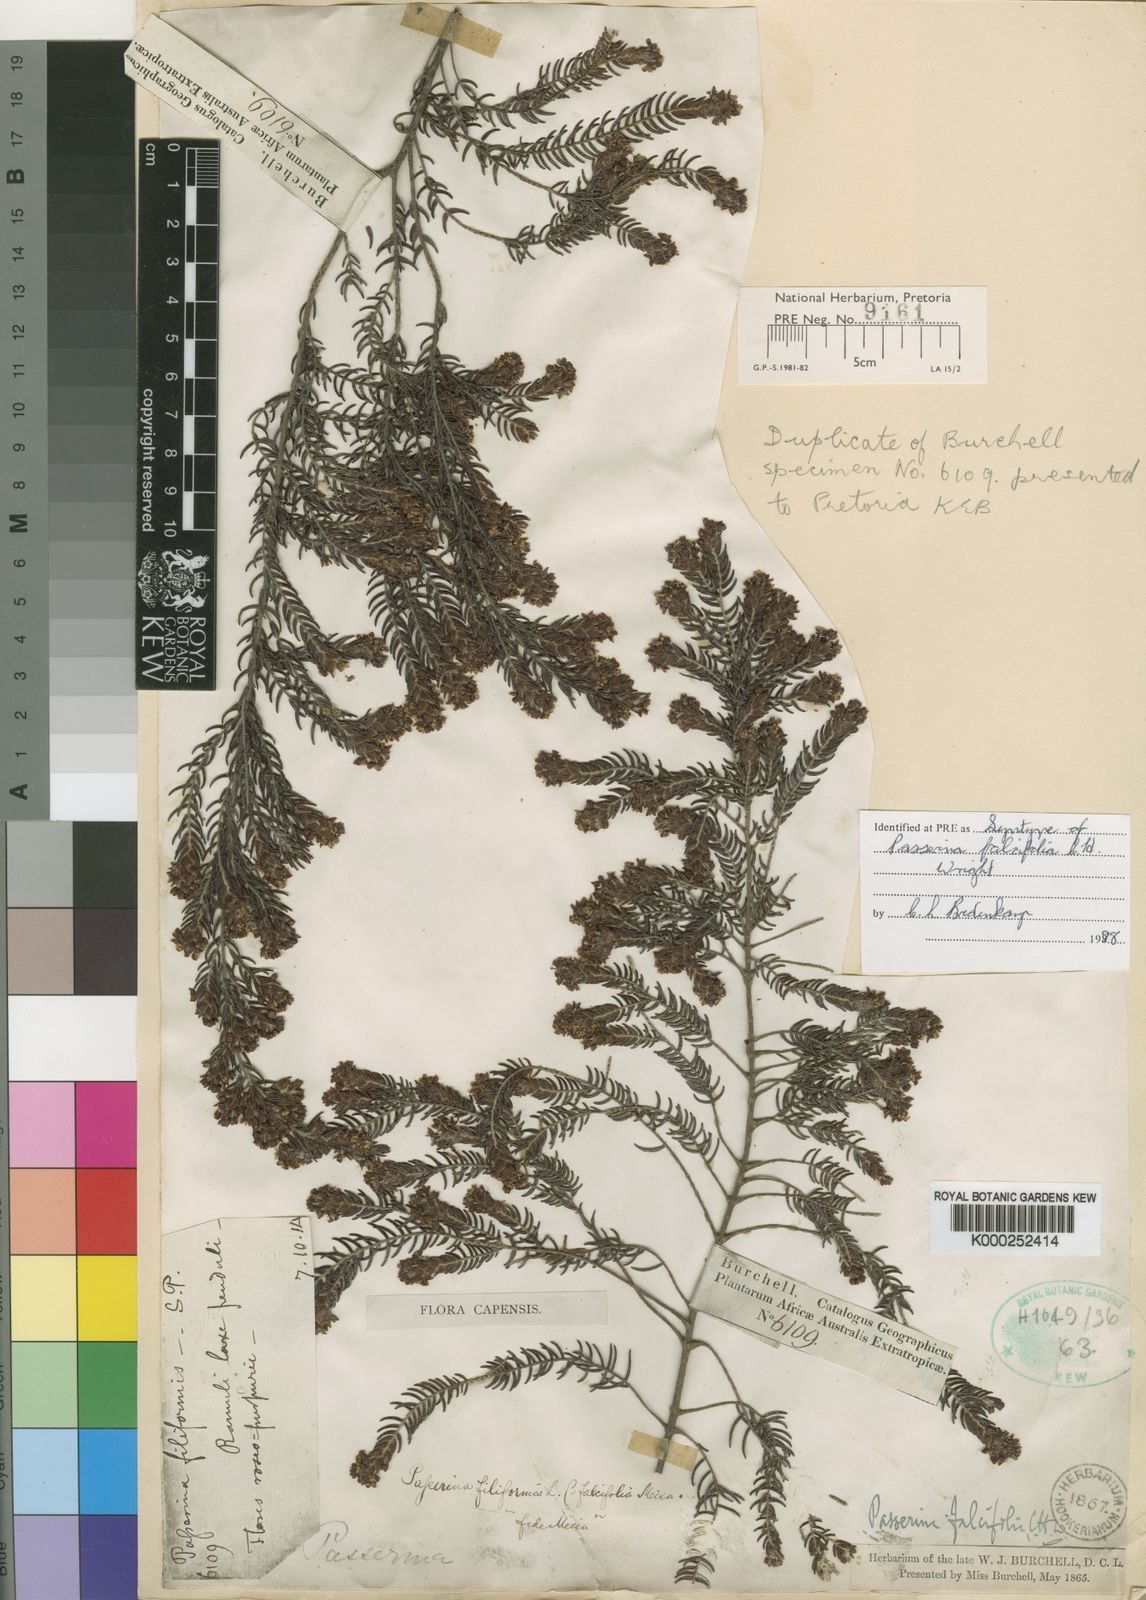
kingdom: Plantae
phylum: Tracheophyta
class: Magnoliopsida
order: Malvales
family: Thymelaeaceae
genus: Passerina
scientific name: Passerina falcifolia
